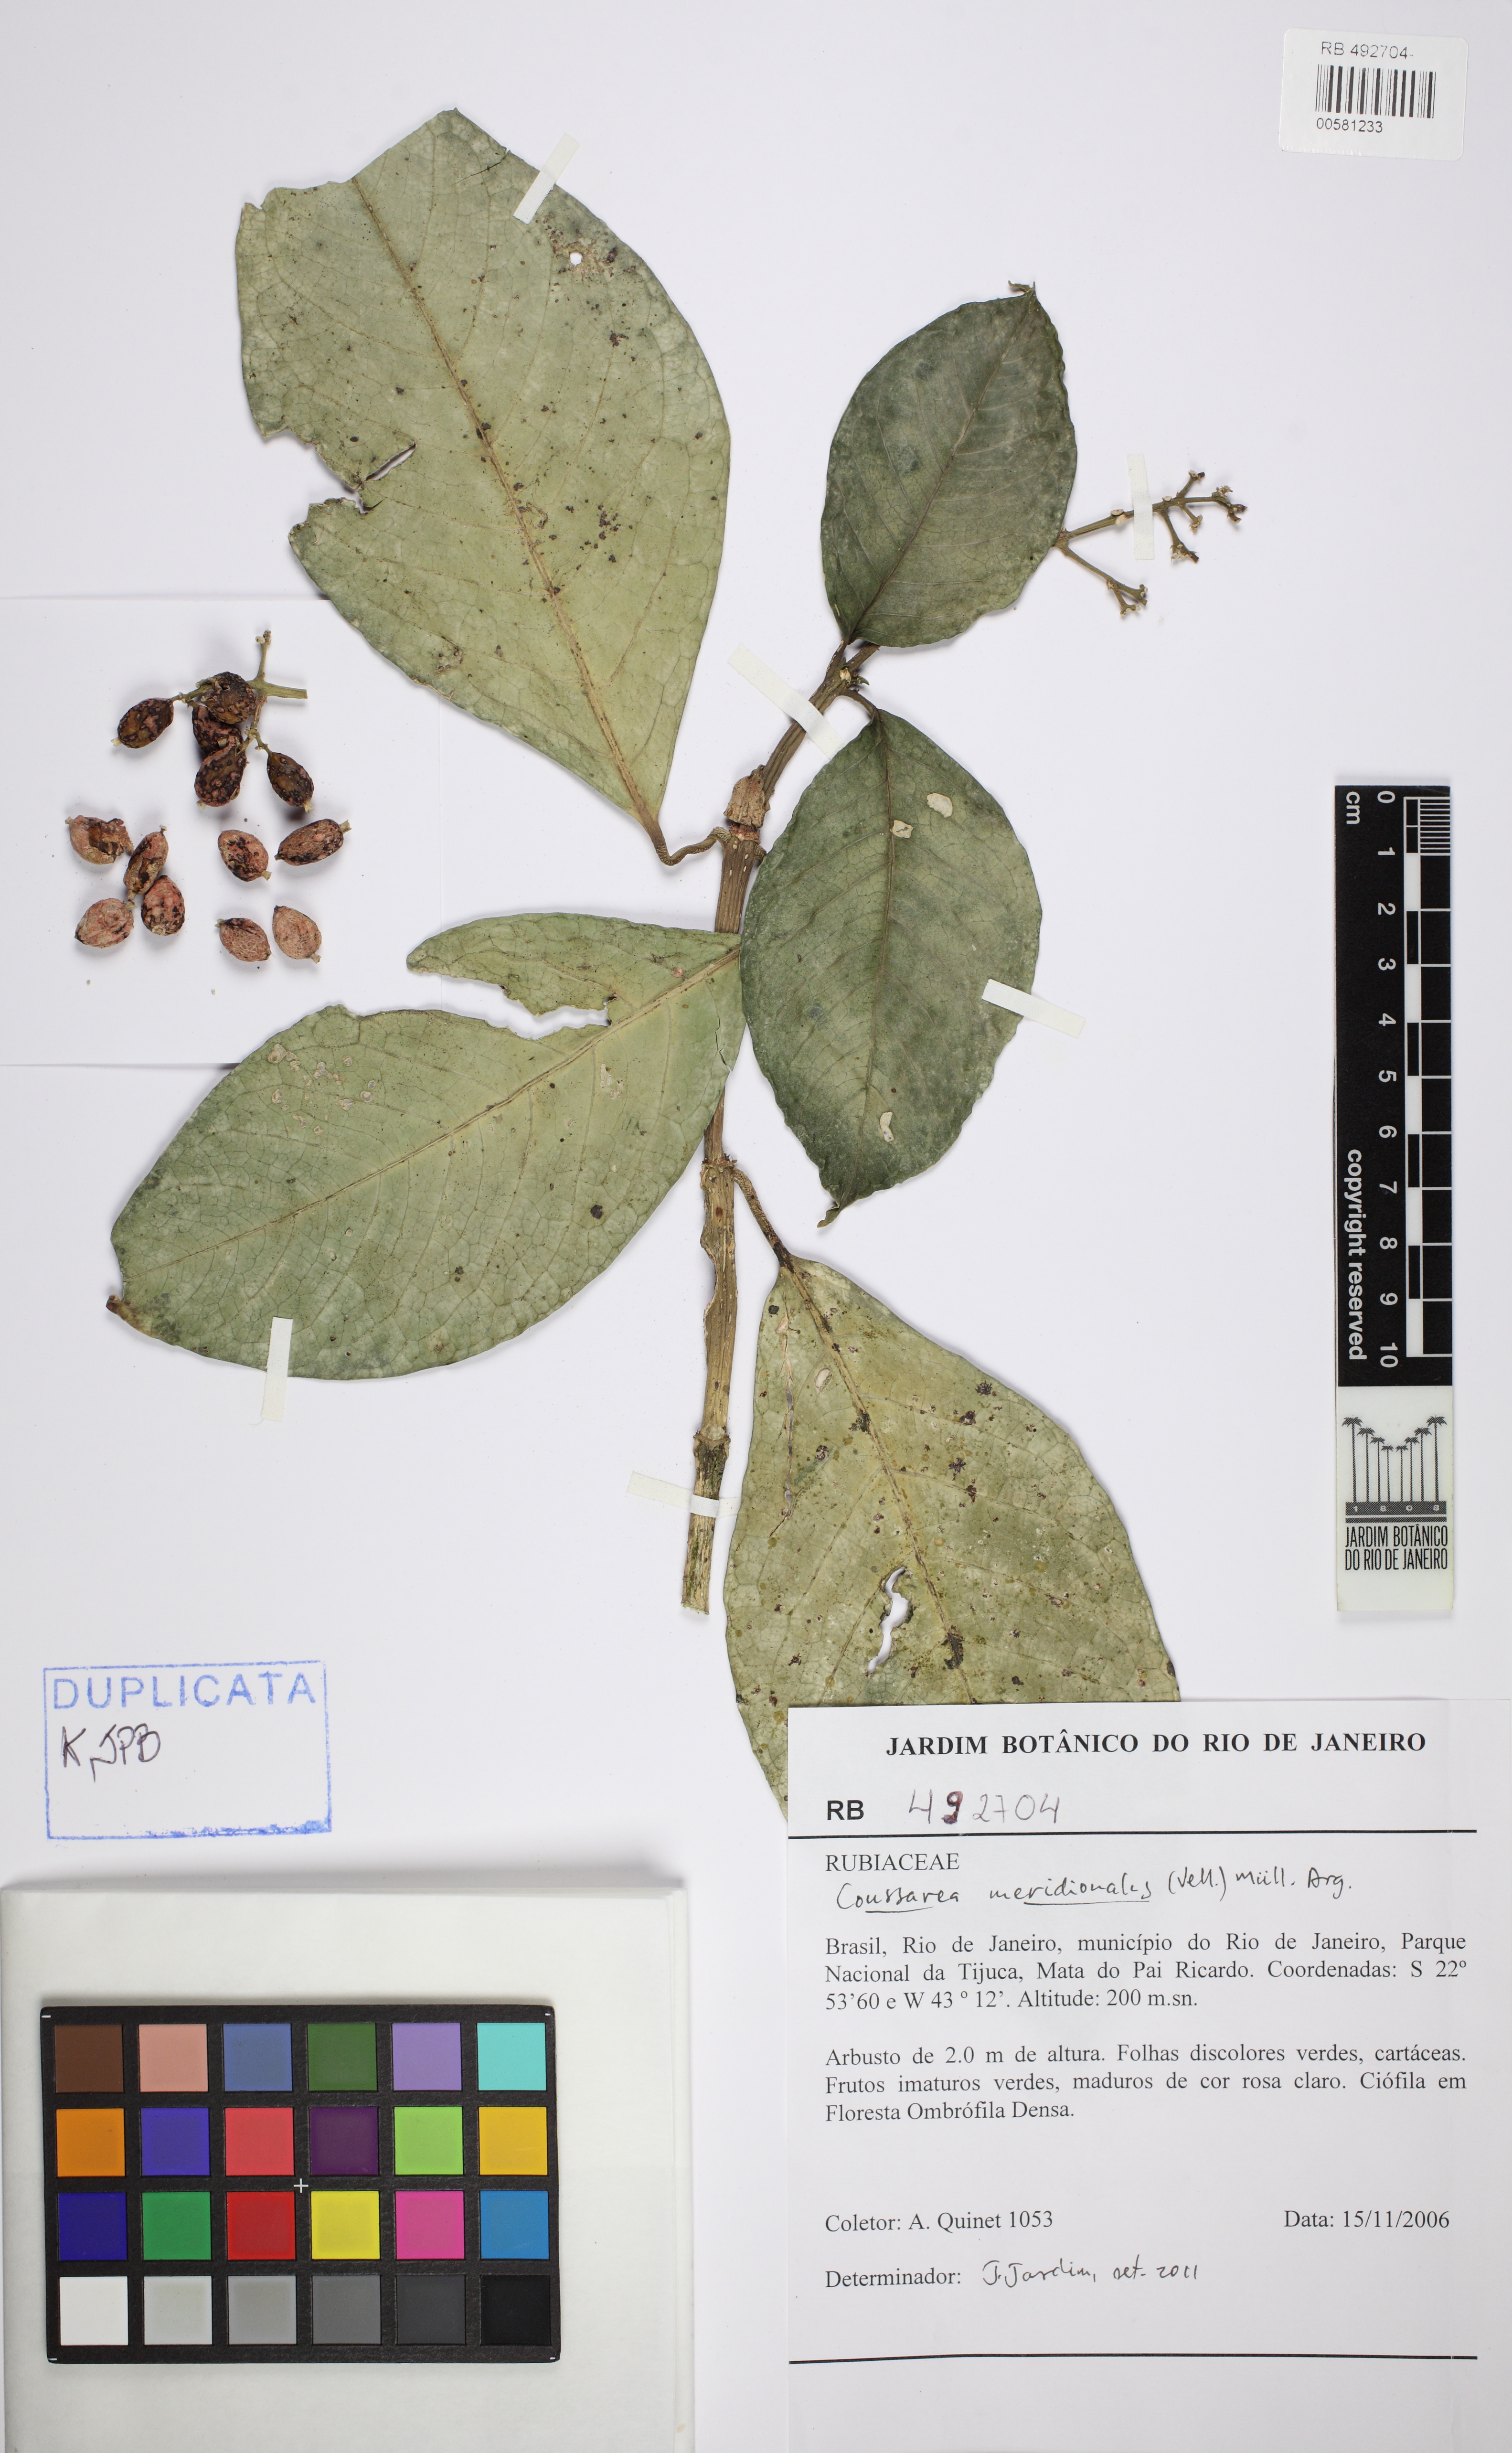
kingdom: Plantae
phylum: Tracheophyta
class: Magnoliopsida
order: Gentianales
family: Rubiaceae
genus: Coussarea
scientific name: Coussarea meridionalis
